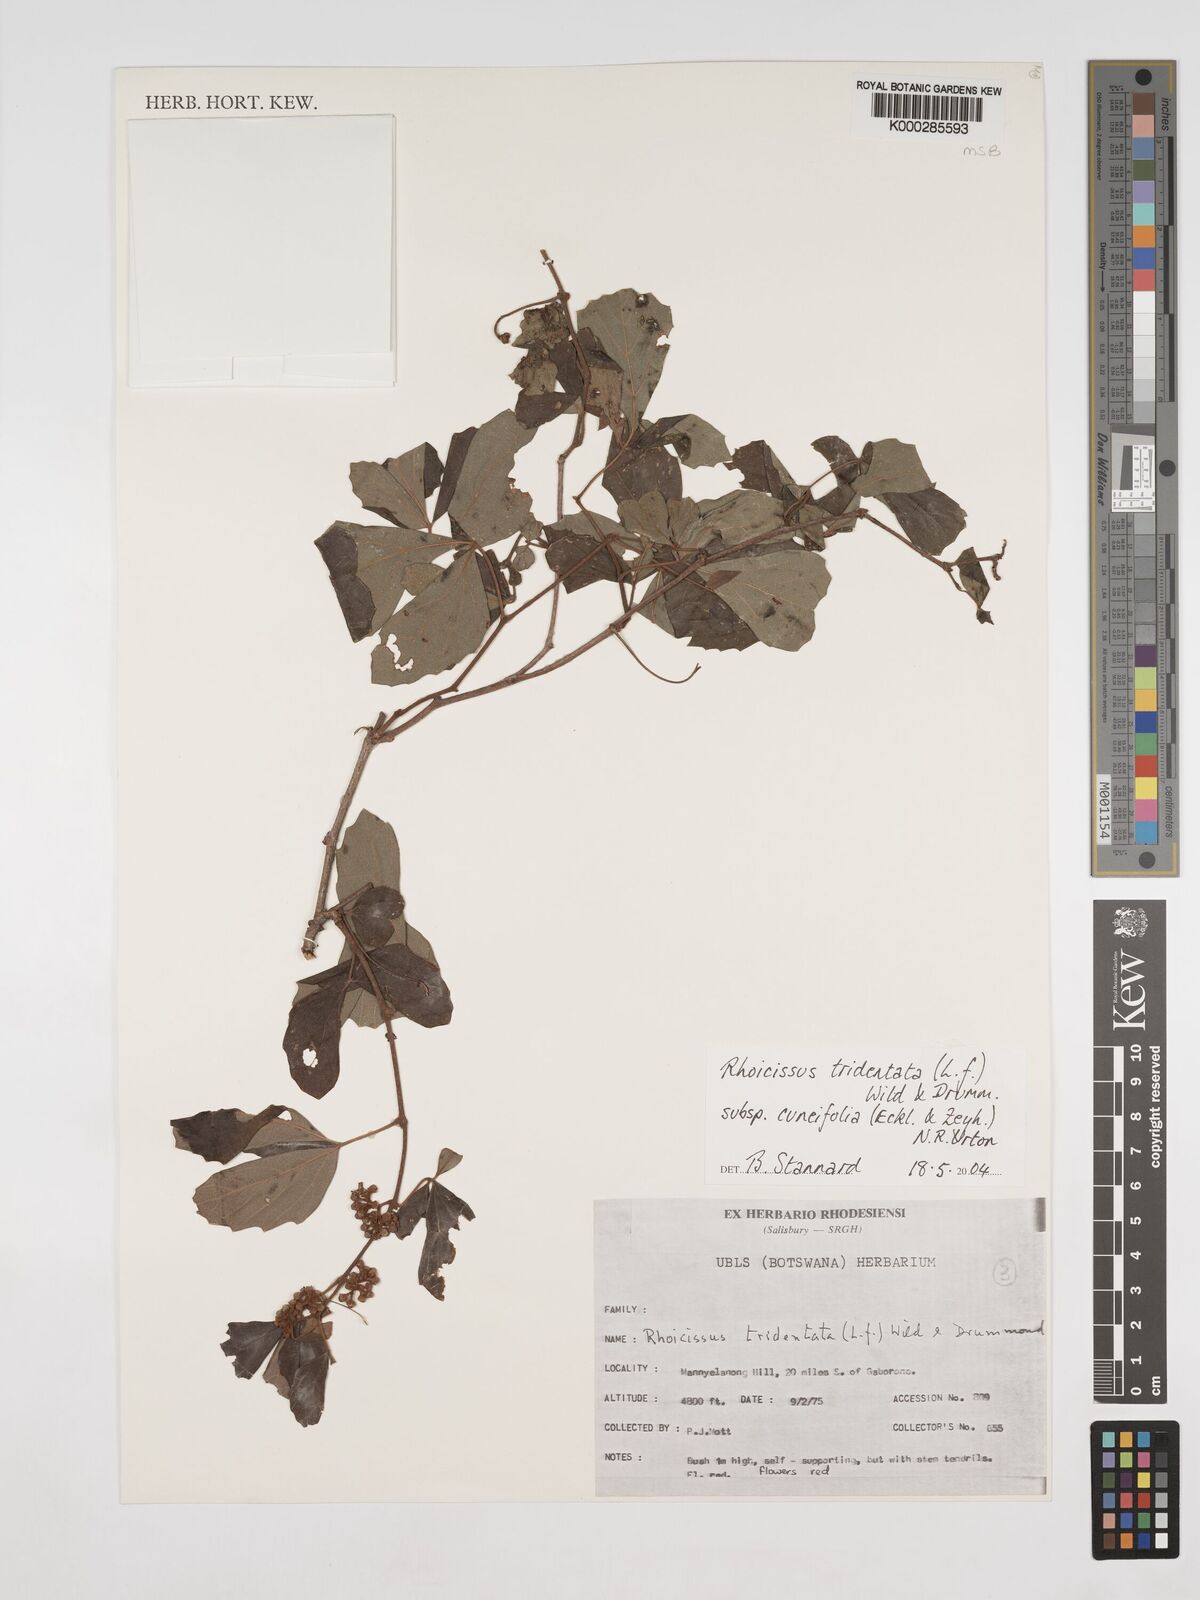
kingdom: Plantae
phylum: Tracheophyta
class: Magnoliopsida
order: Vitales
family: Vitaceae
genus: Rhoicissus
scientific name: Rhoicissus tridentata
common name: Common forest grape
